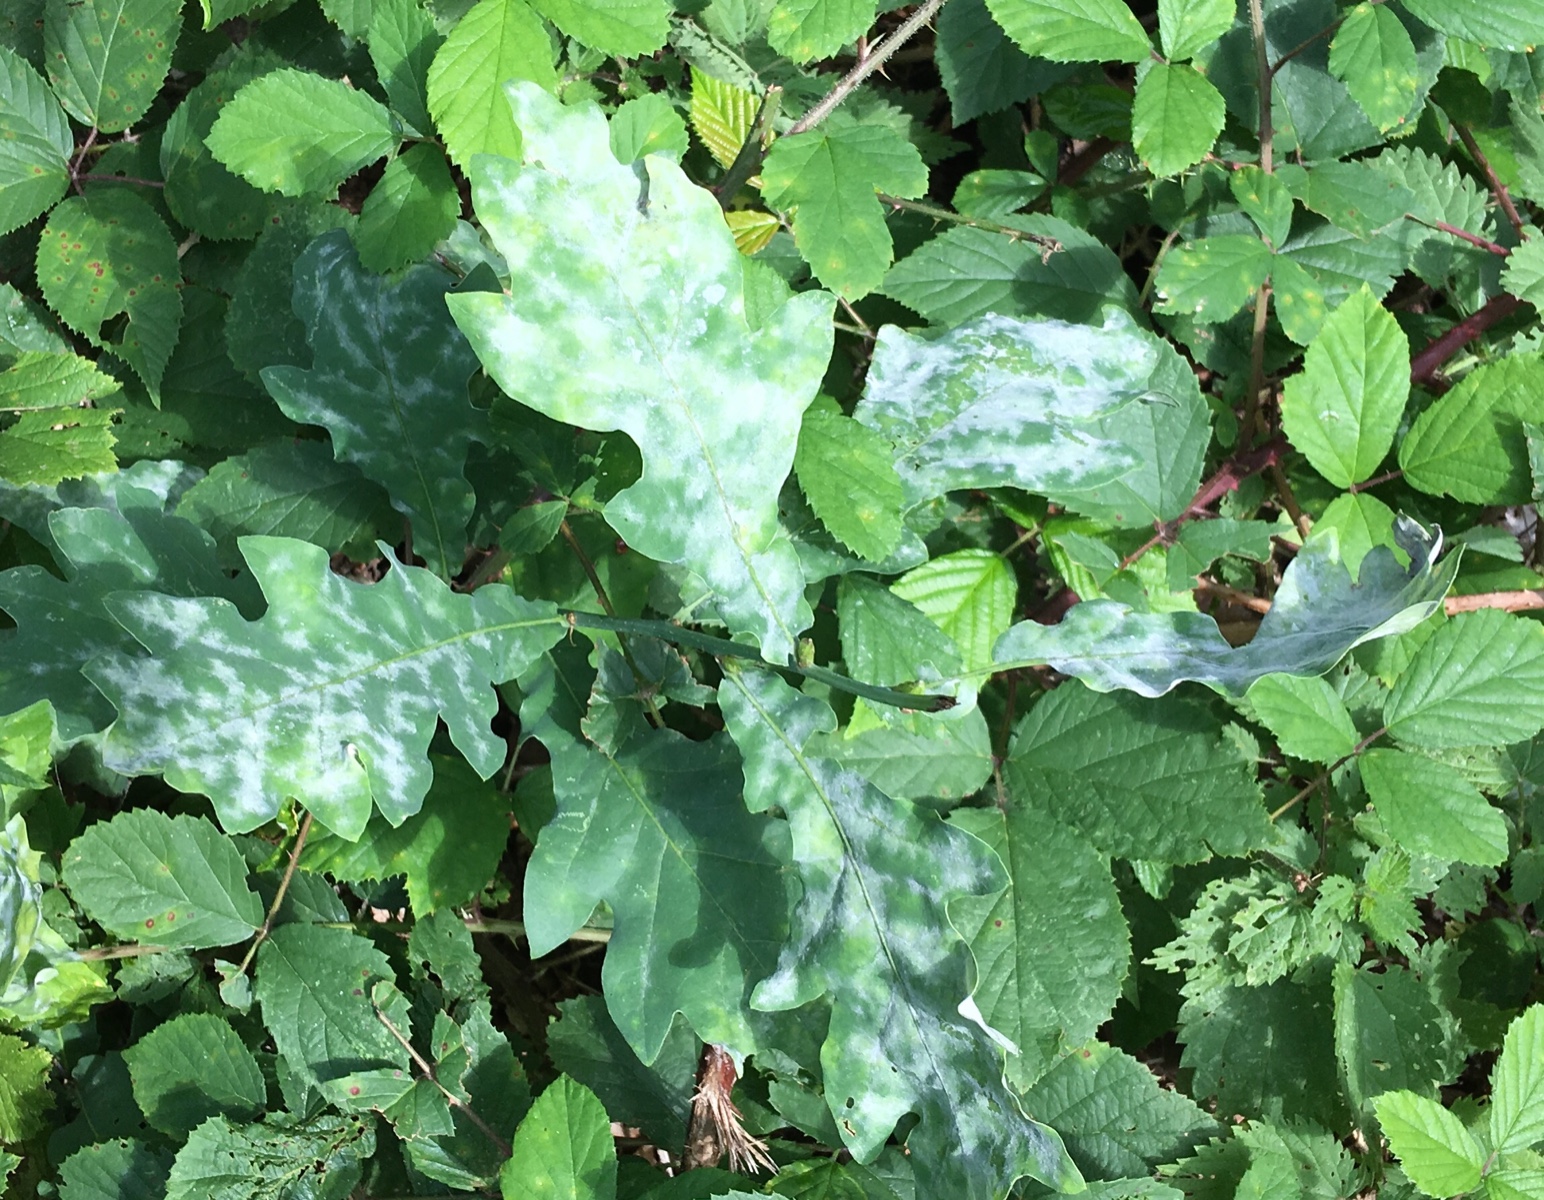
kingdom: Fungi
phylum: Ascomycota
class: Leotiomycetes
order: Helotiales
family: Erysiphaceae
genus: Erysiphe
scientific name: Erysiphe alphitoides
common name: ege-meldug
